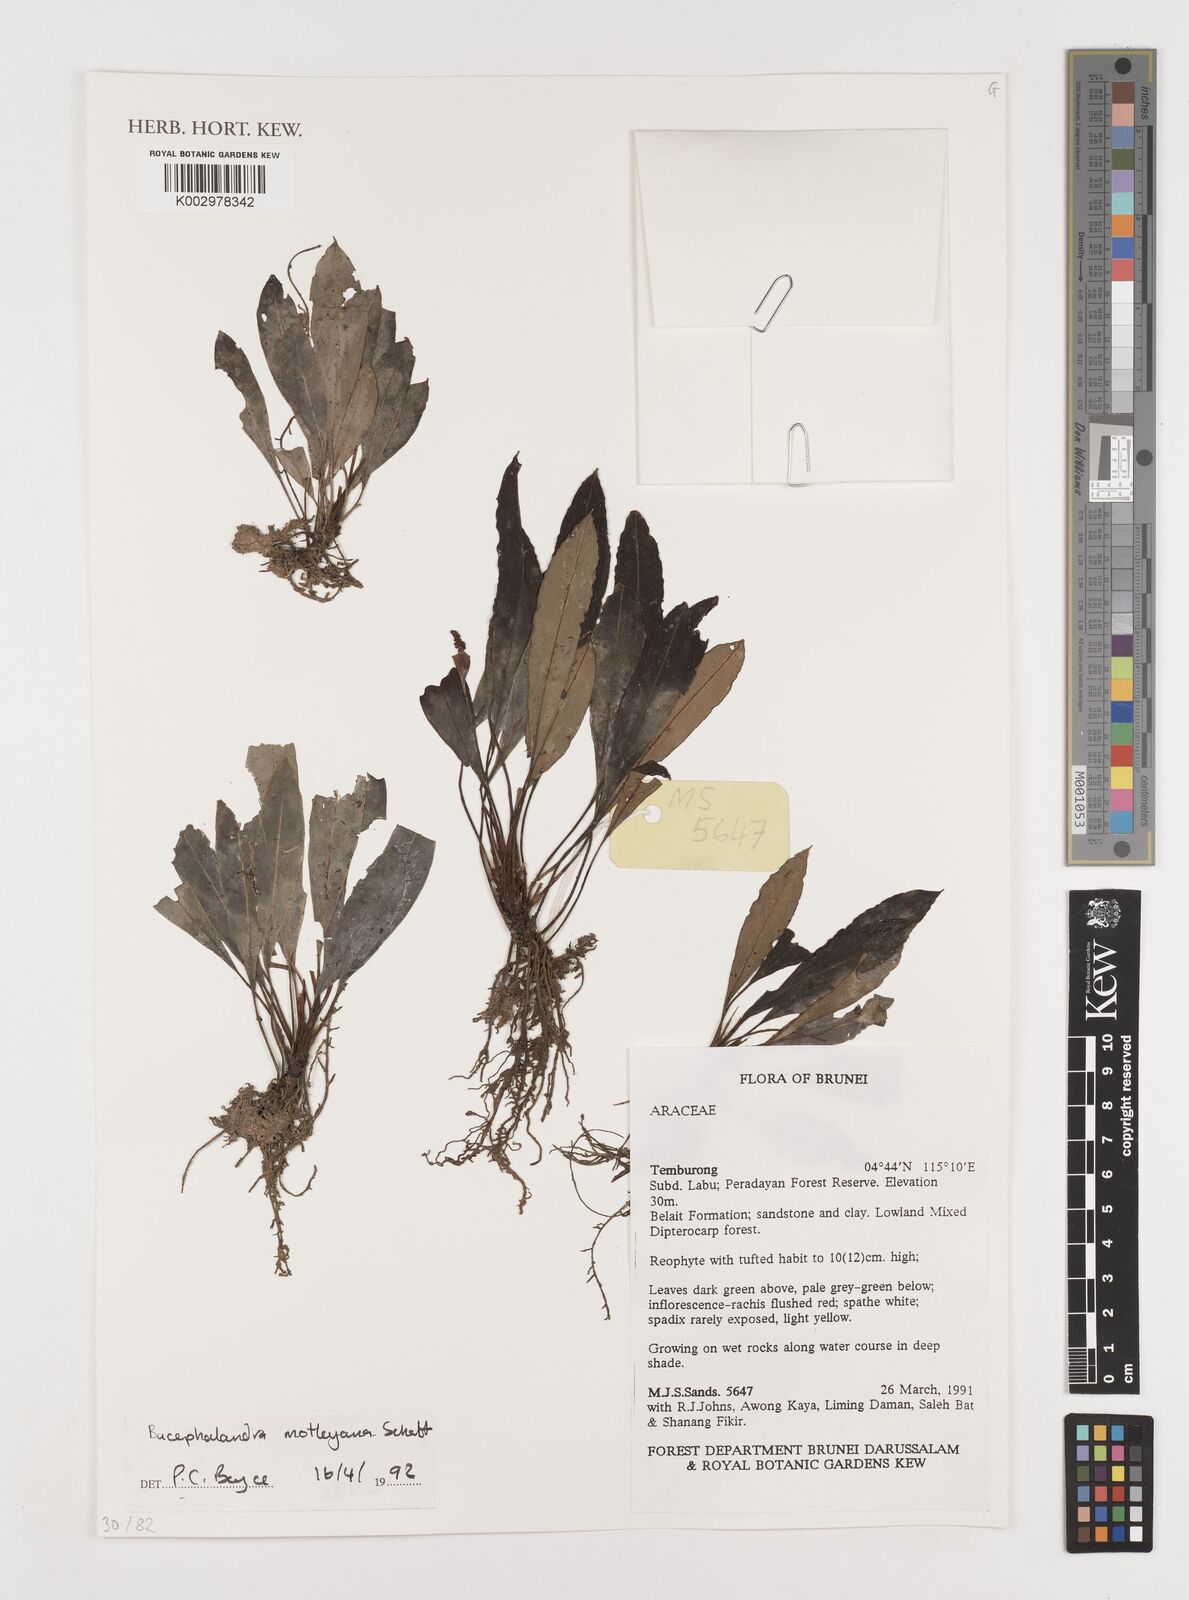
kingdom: Plantae
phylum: Tracheophyta
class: Liliopsida
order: Alismatales
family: Araceae
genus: Bucephalandra
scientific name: Bucephalandra motleyana
